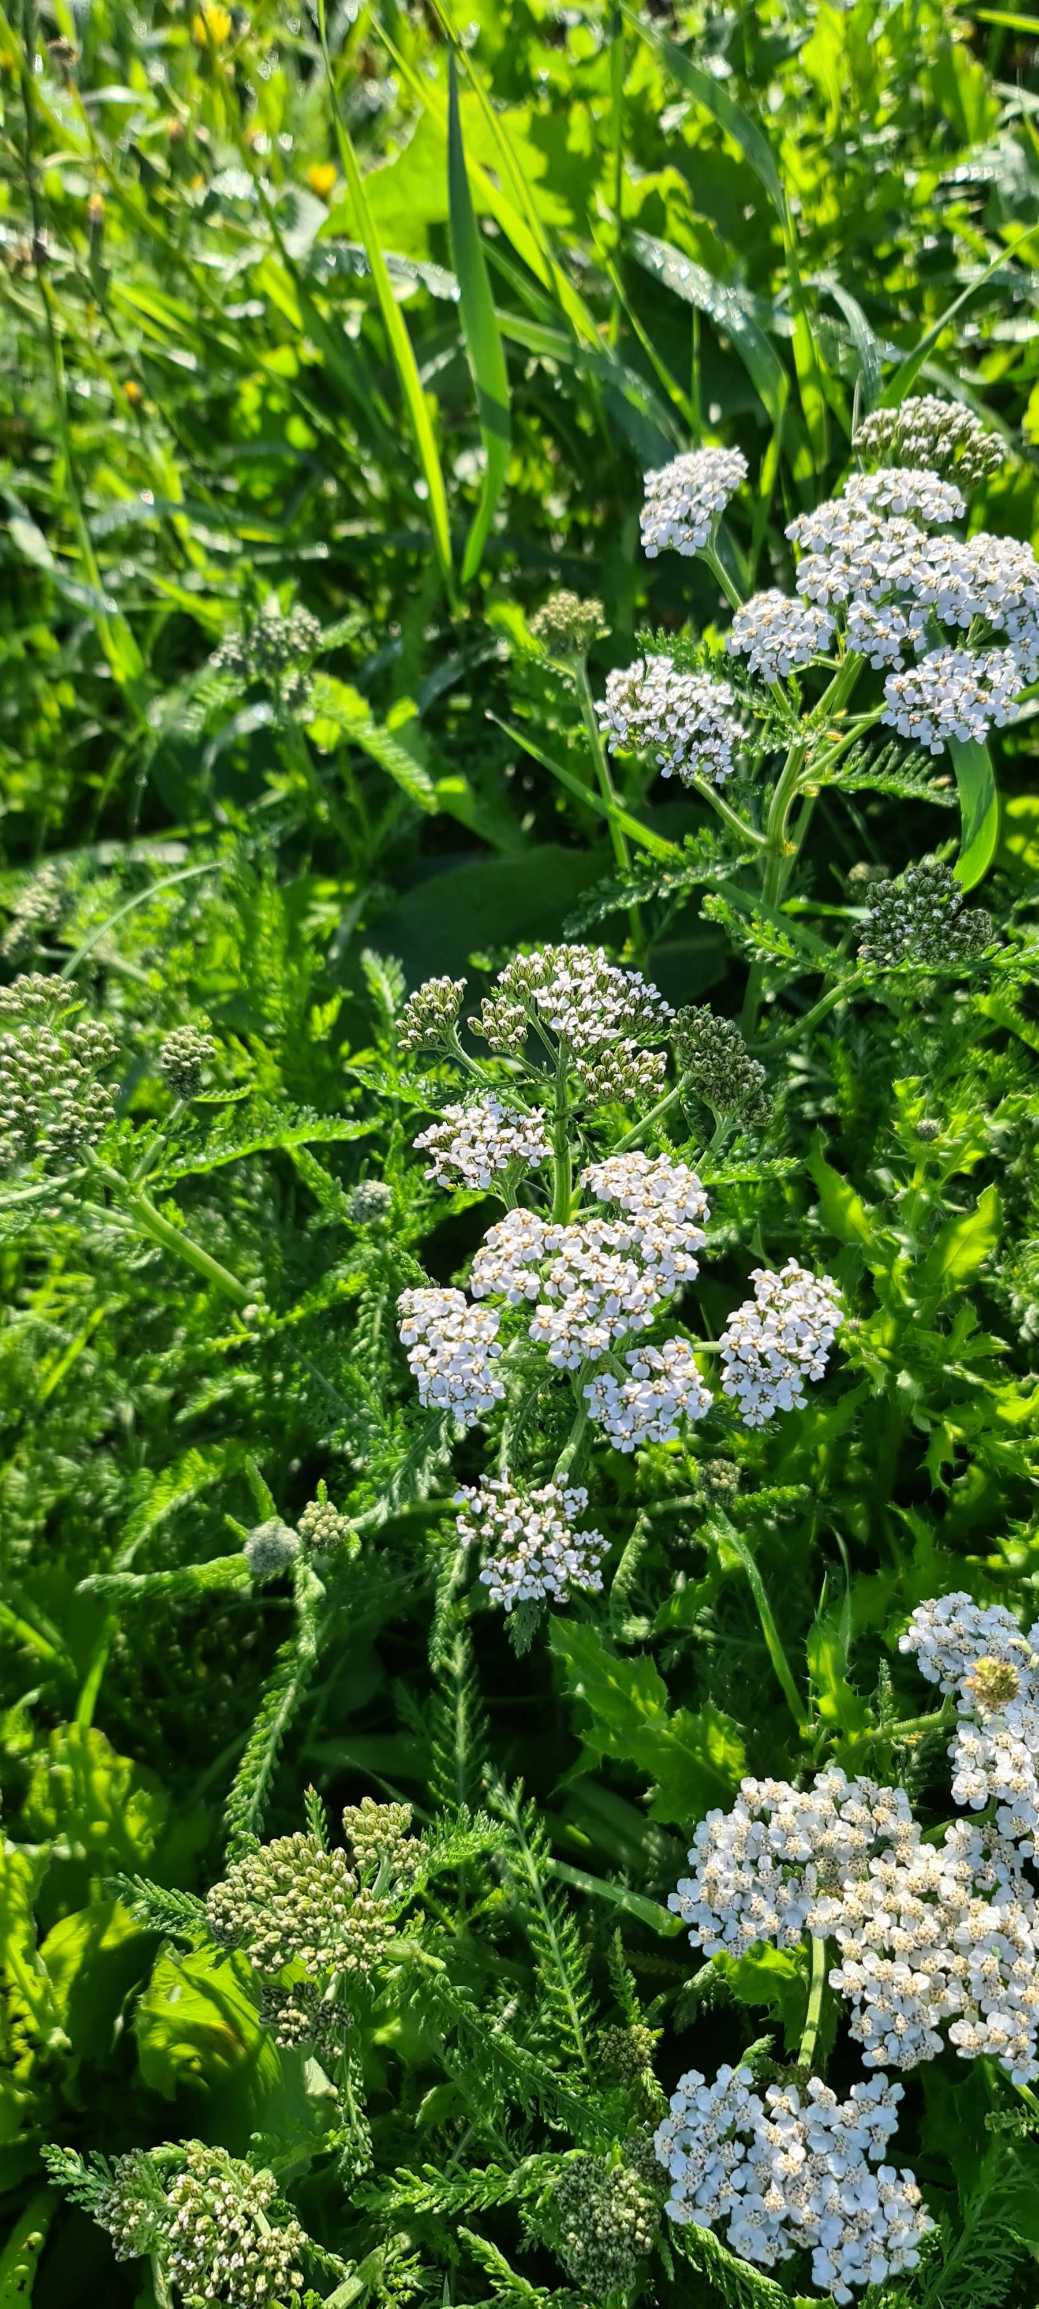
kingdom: Plantae
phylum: Tracheophyta
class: Magnoliopsida
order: Asterales
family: Asteraceae
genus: Achillea
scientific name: Achillea millefolium
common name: Almindelig røllike
